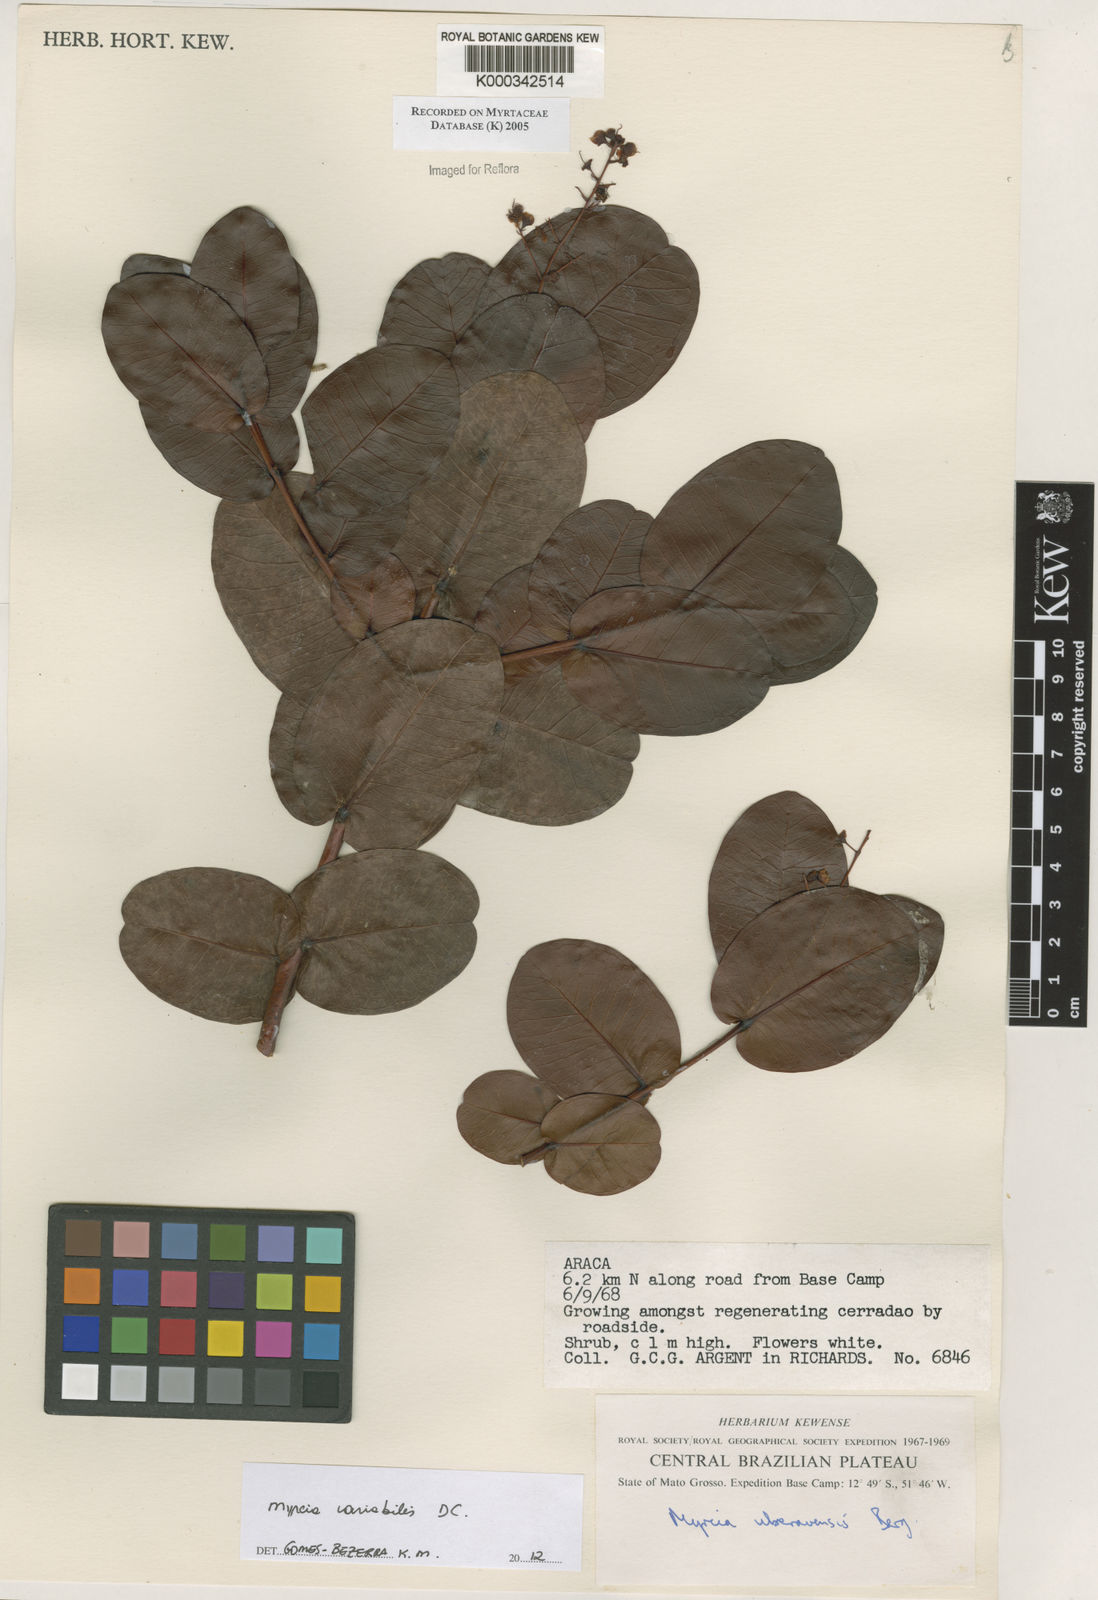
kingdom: Plantae
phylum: Tracheophyta
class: Magnoliopsida
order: Myrtales
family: Myrtaceae
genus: Myrcia
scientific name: Myrcia uberavensis
